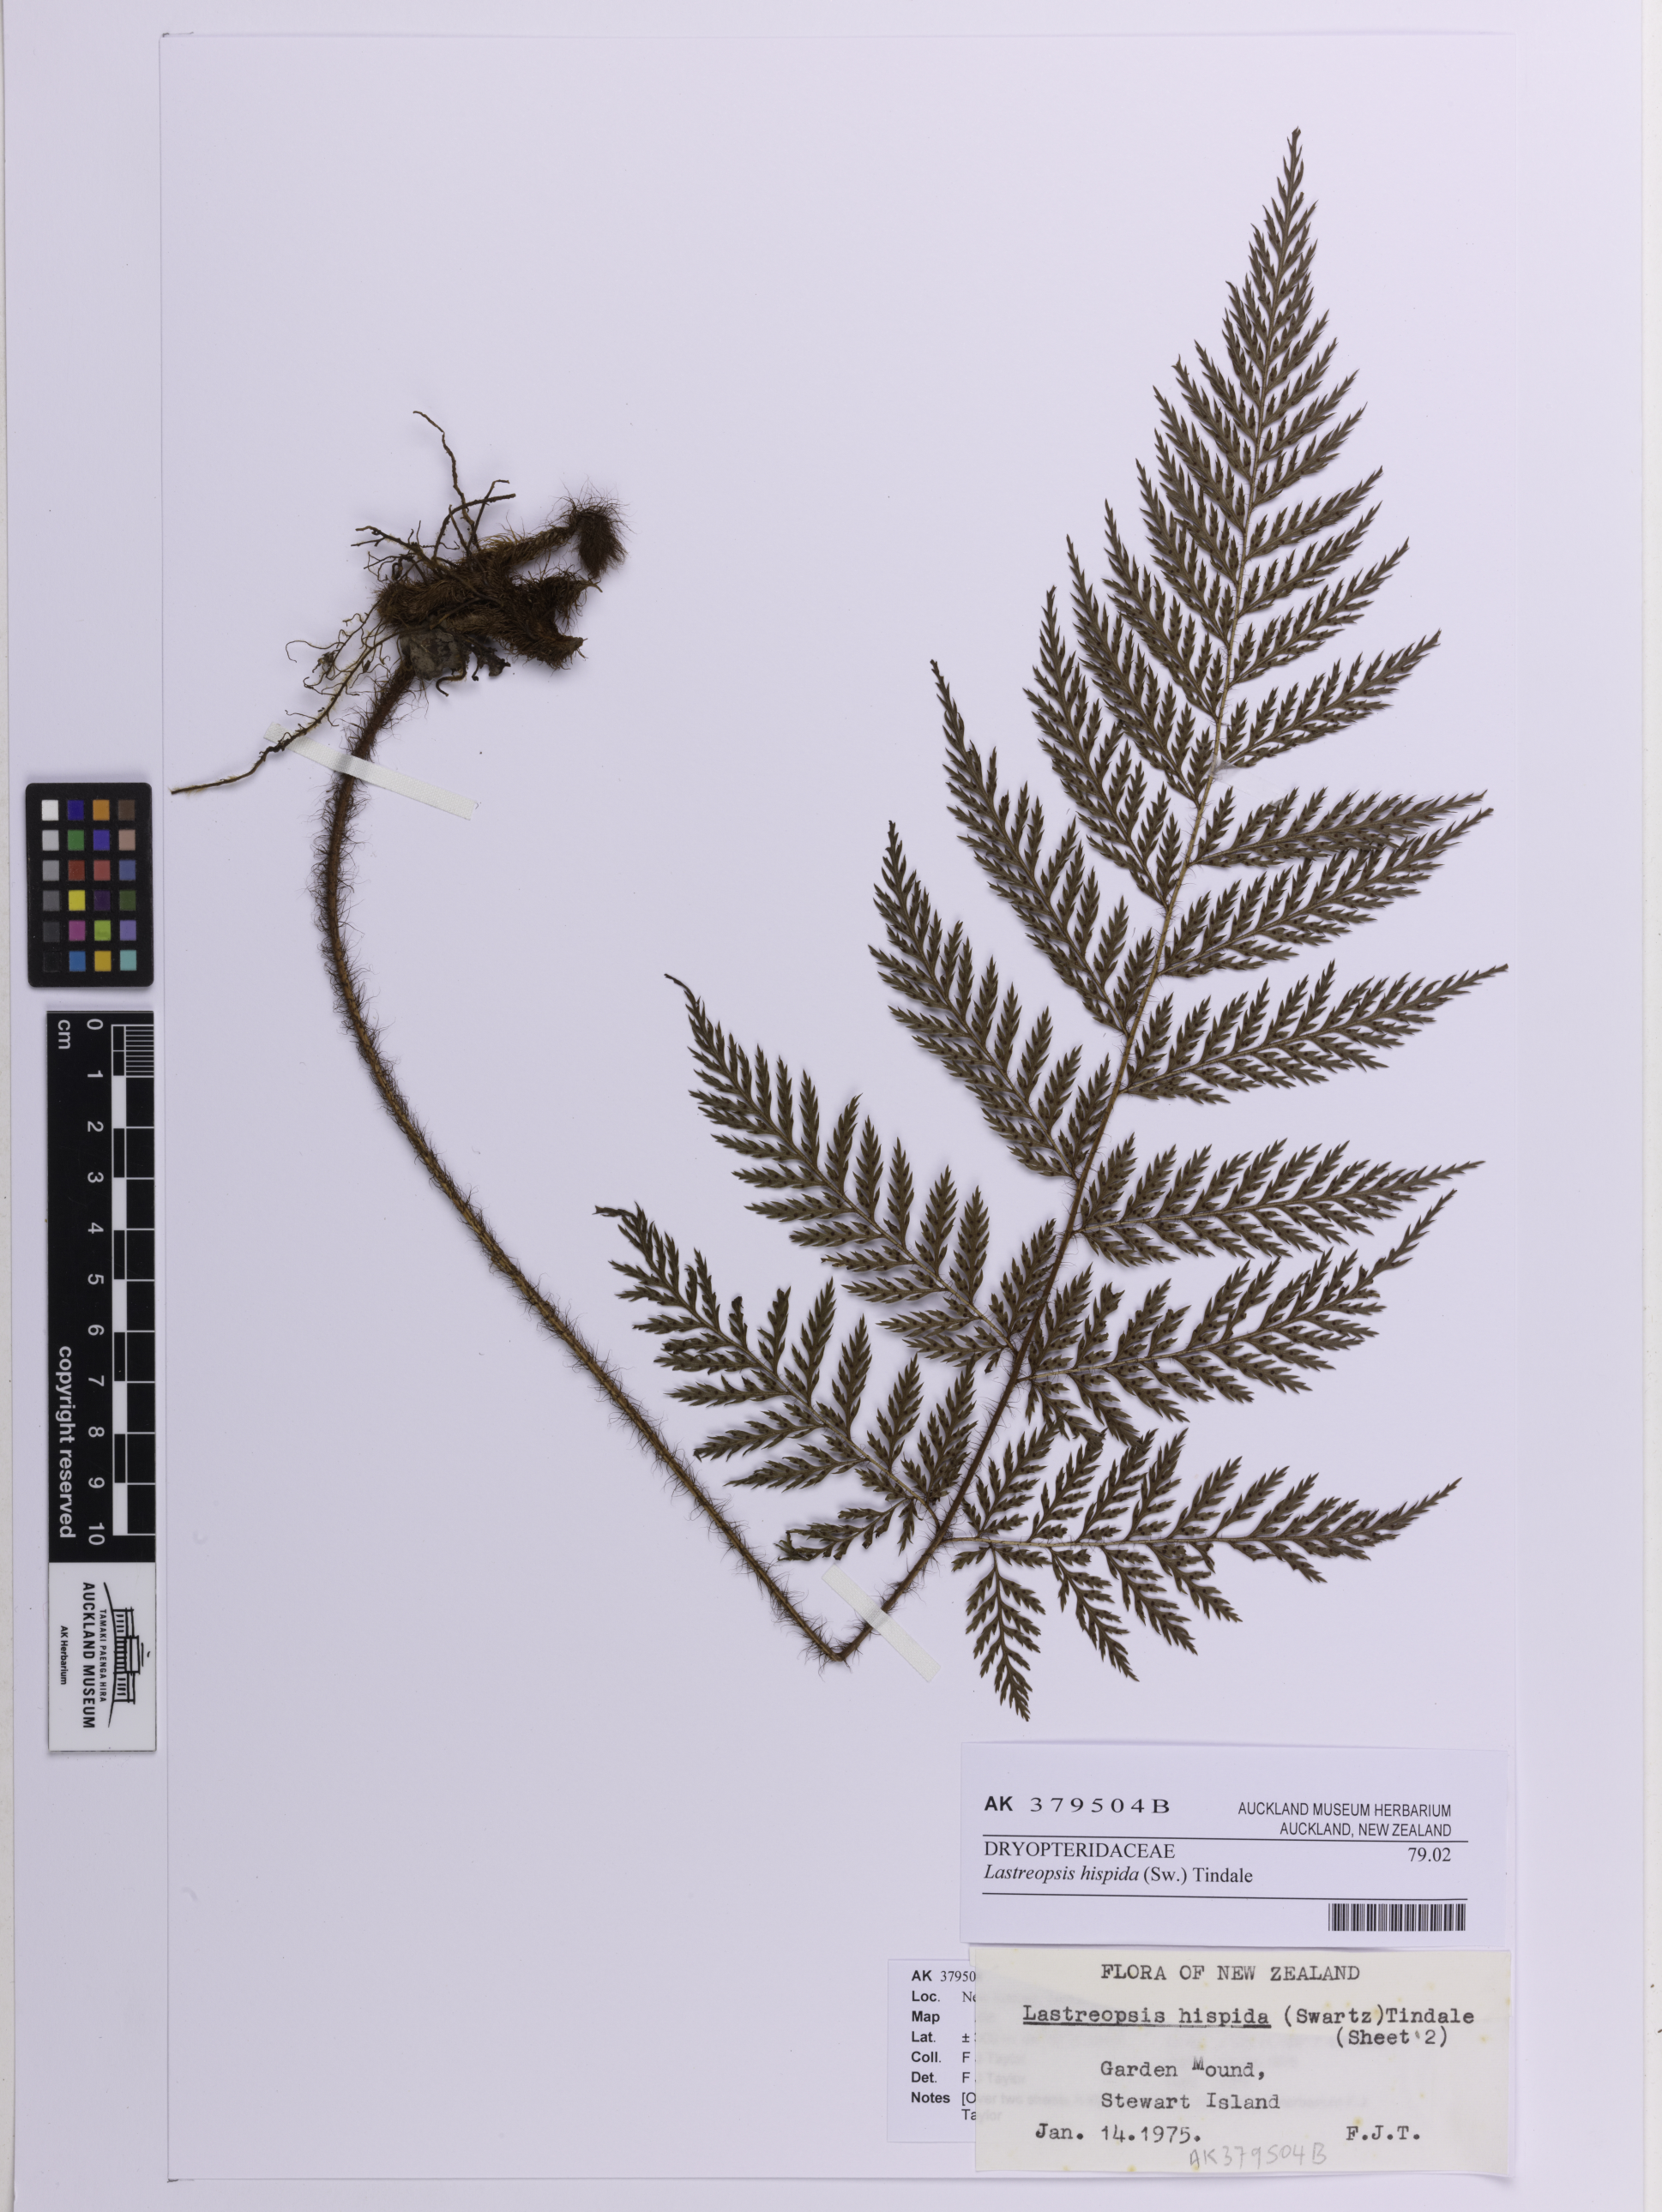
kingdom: Plantae
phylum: Tracheophyta
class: Polypodiopsida
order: Polypodiales
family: Dryopteridaceae
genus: Lastreopsis
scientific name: Lastreopsis hispida
